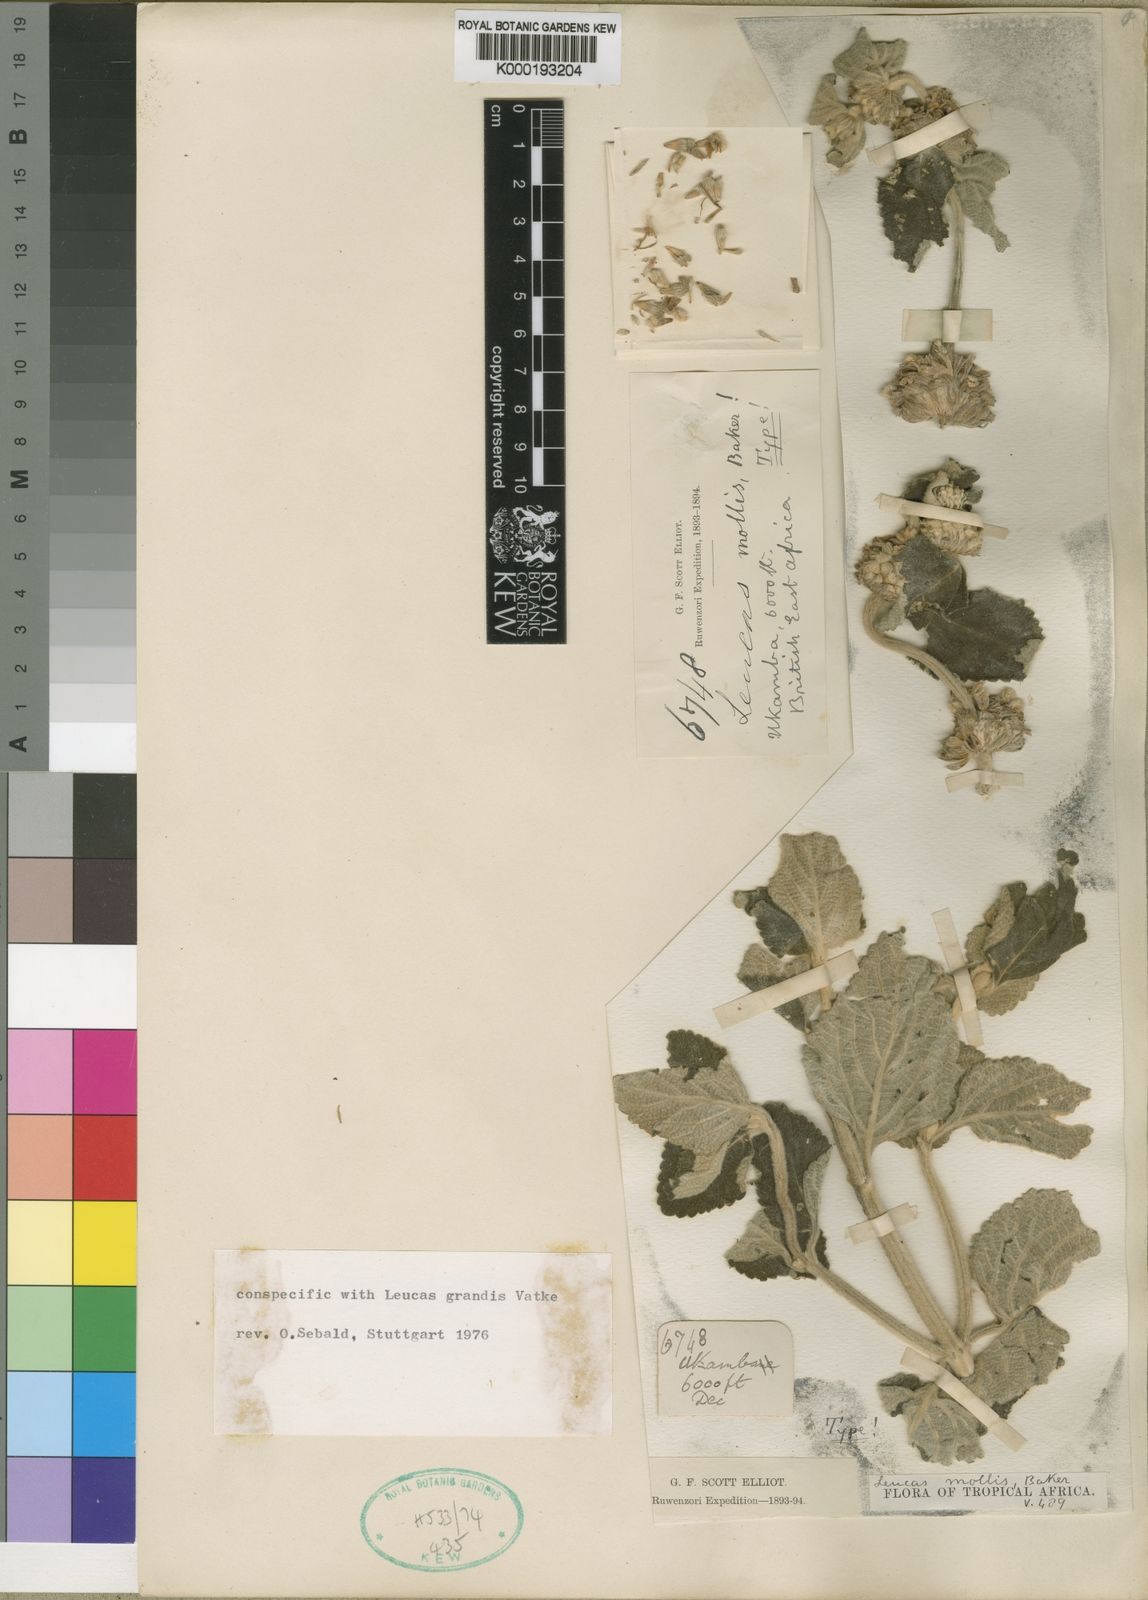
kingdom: Plantae
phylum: Tracheophyta
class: Magnoliopsida
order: Lamiales
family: Lamiaceae
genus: Leucas
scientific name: Leucas grandis
